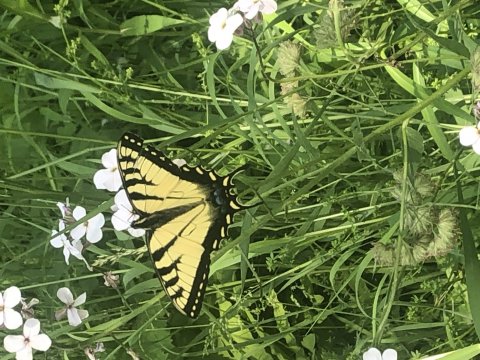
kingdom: Animalia
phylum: Arthropoda
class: Insecta
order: Lepidoptera
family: Papilionidae
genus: Pterourus
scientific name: Pterourus
